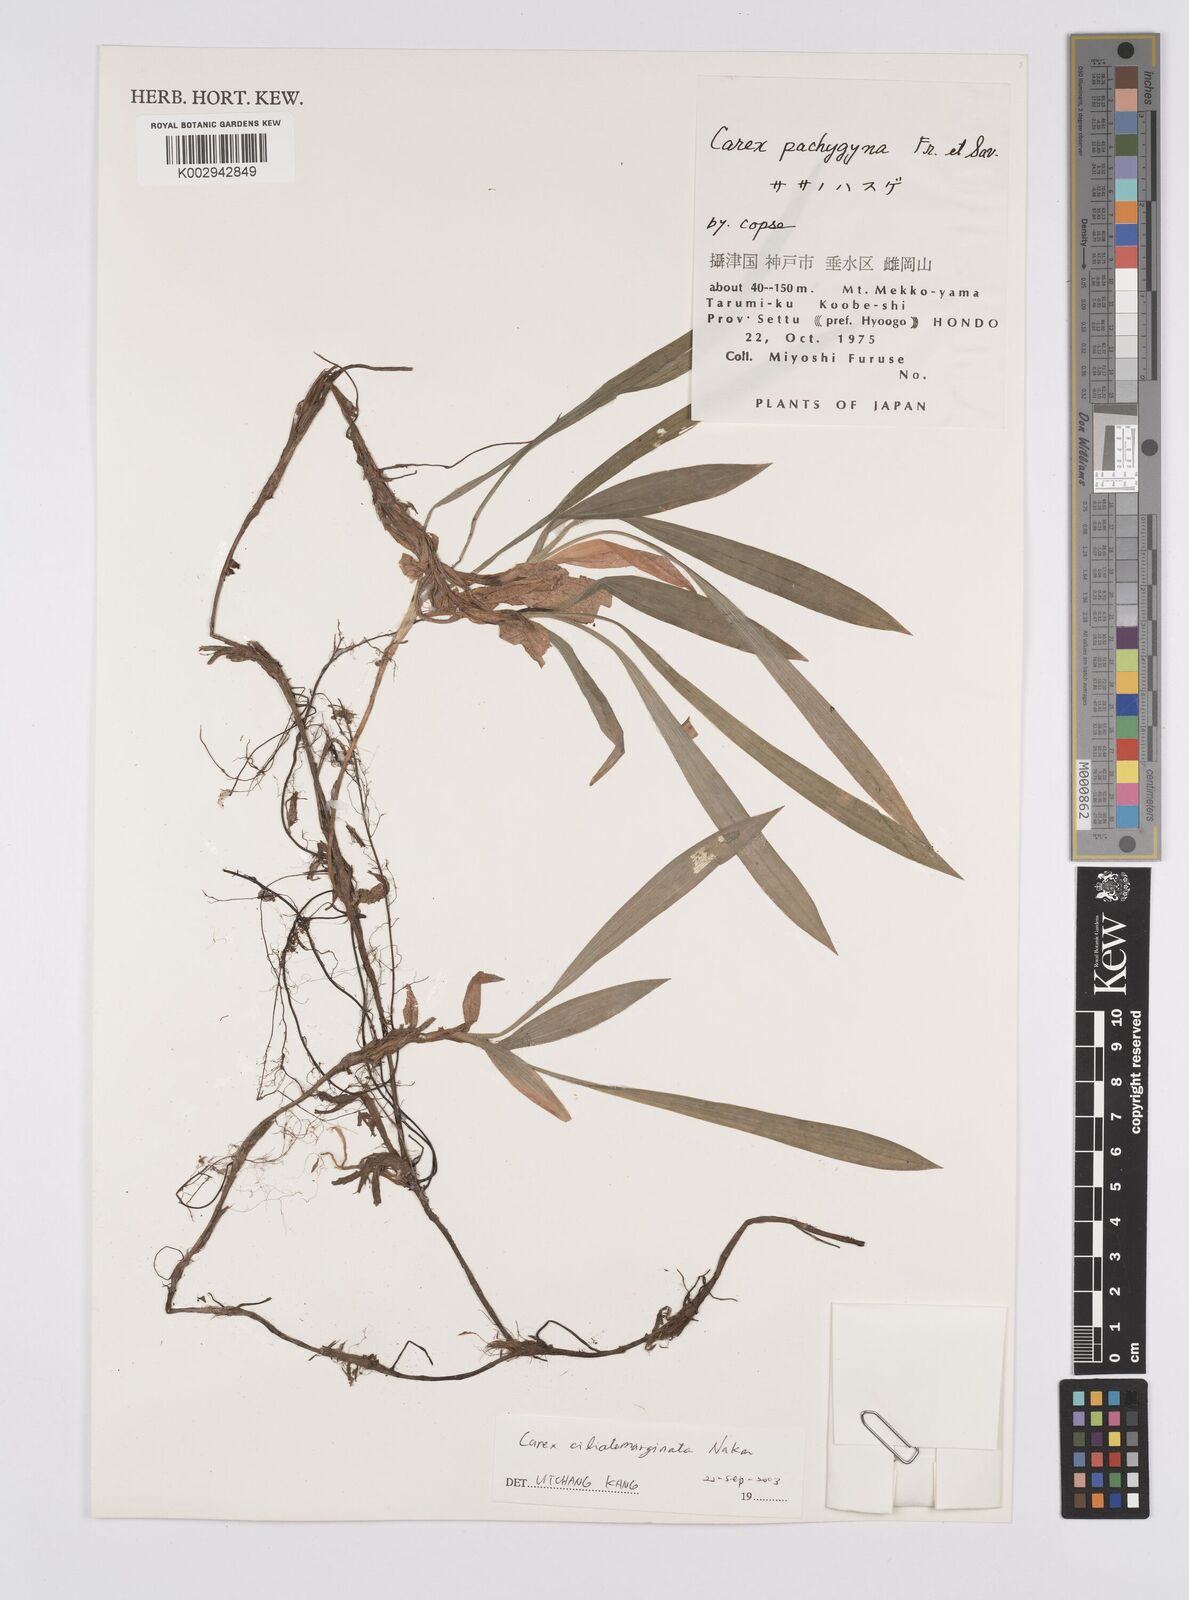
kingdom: Plantae
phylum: Tracheophyta
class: Liliopsida
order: Poales
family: Cyperaceae
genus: Carex
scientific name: Carex siderosticta
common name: Broadleaf sedge
